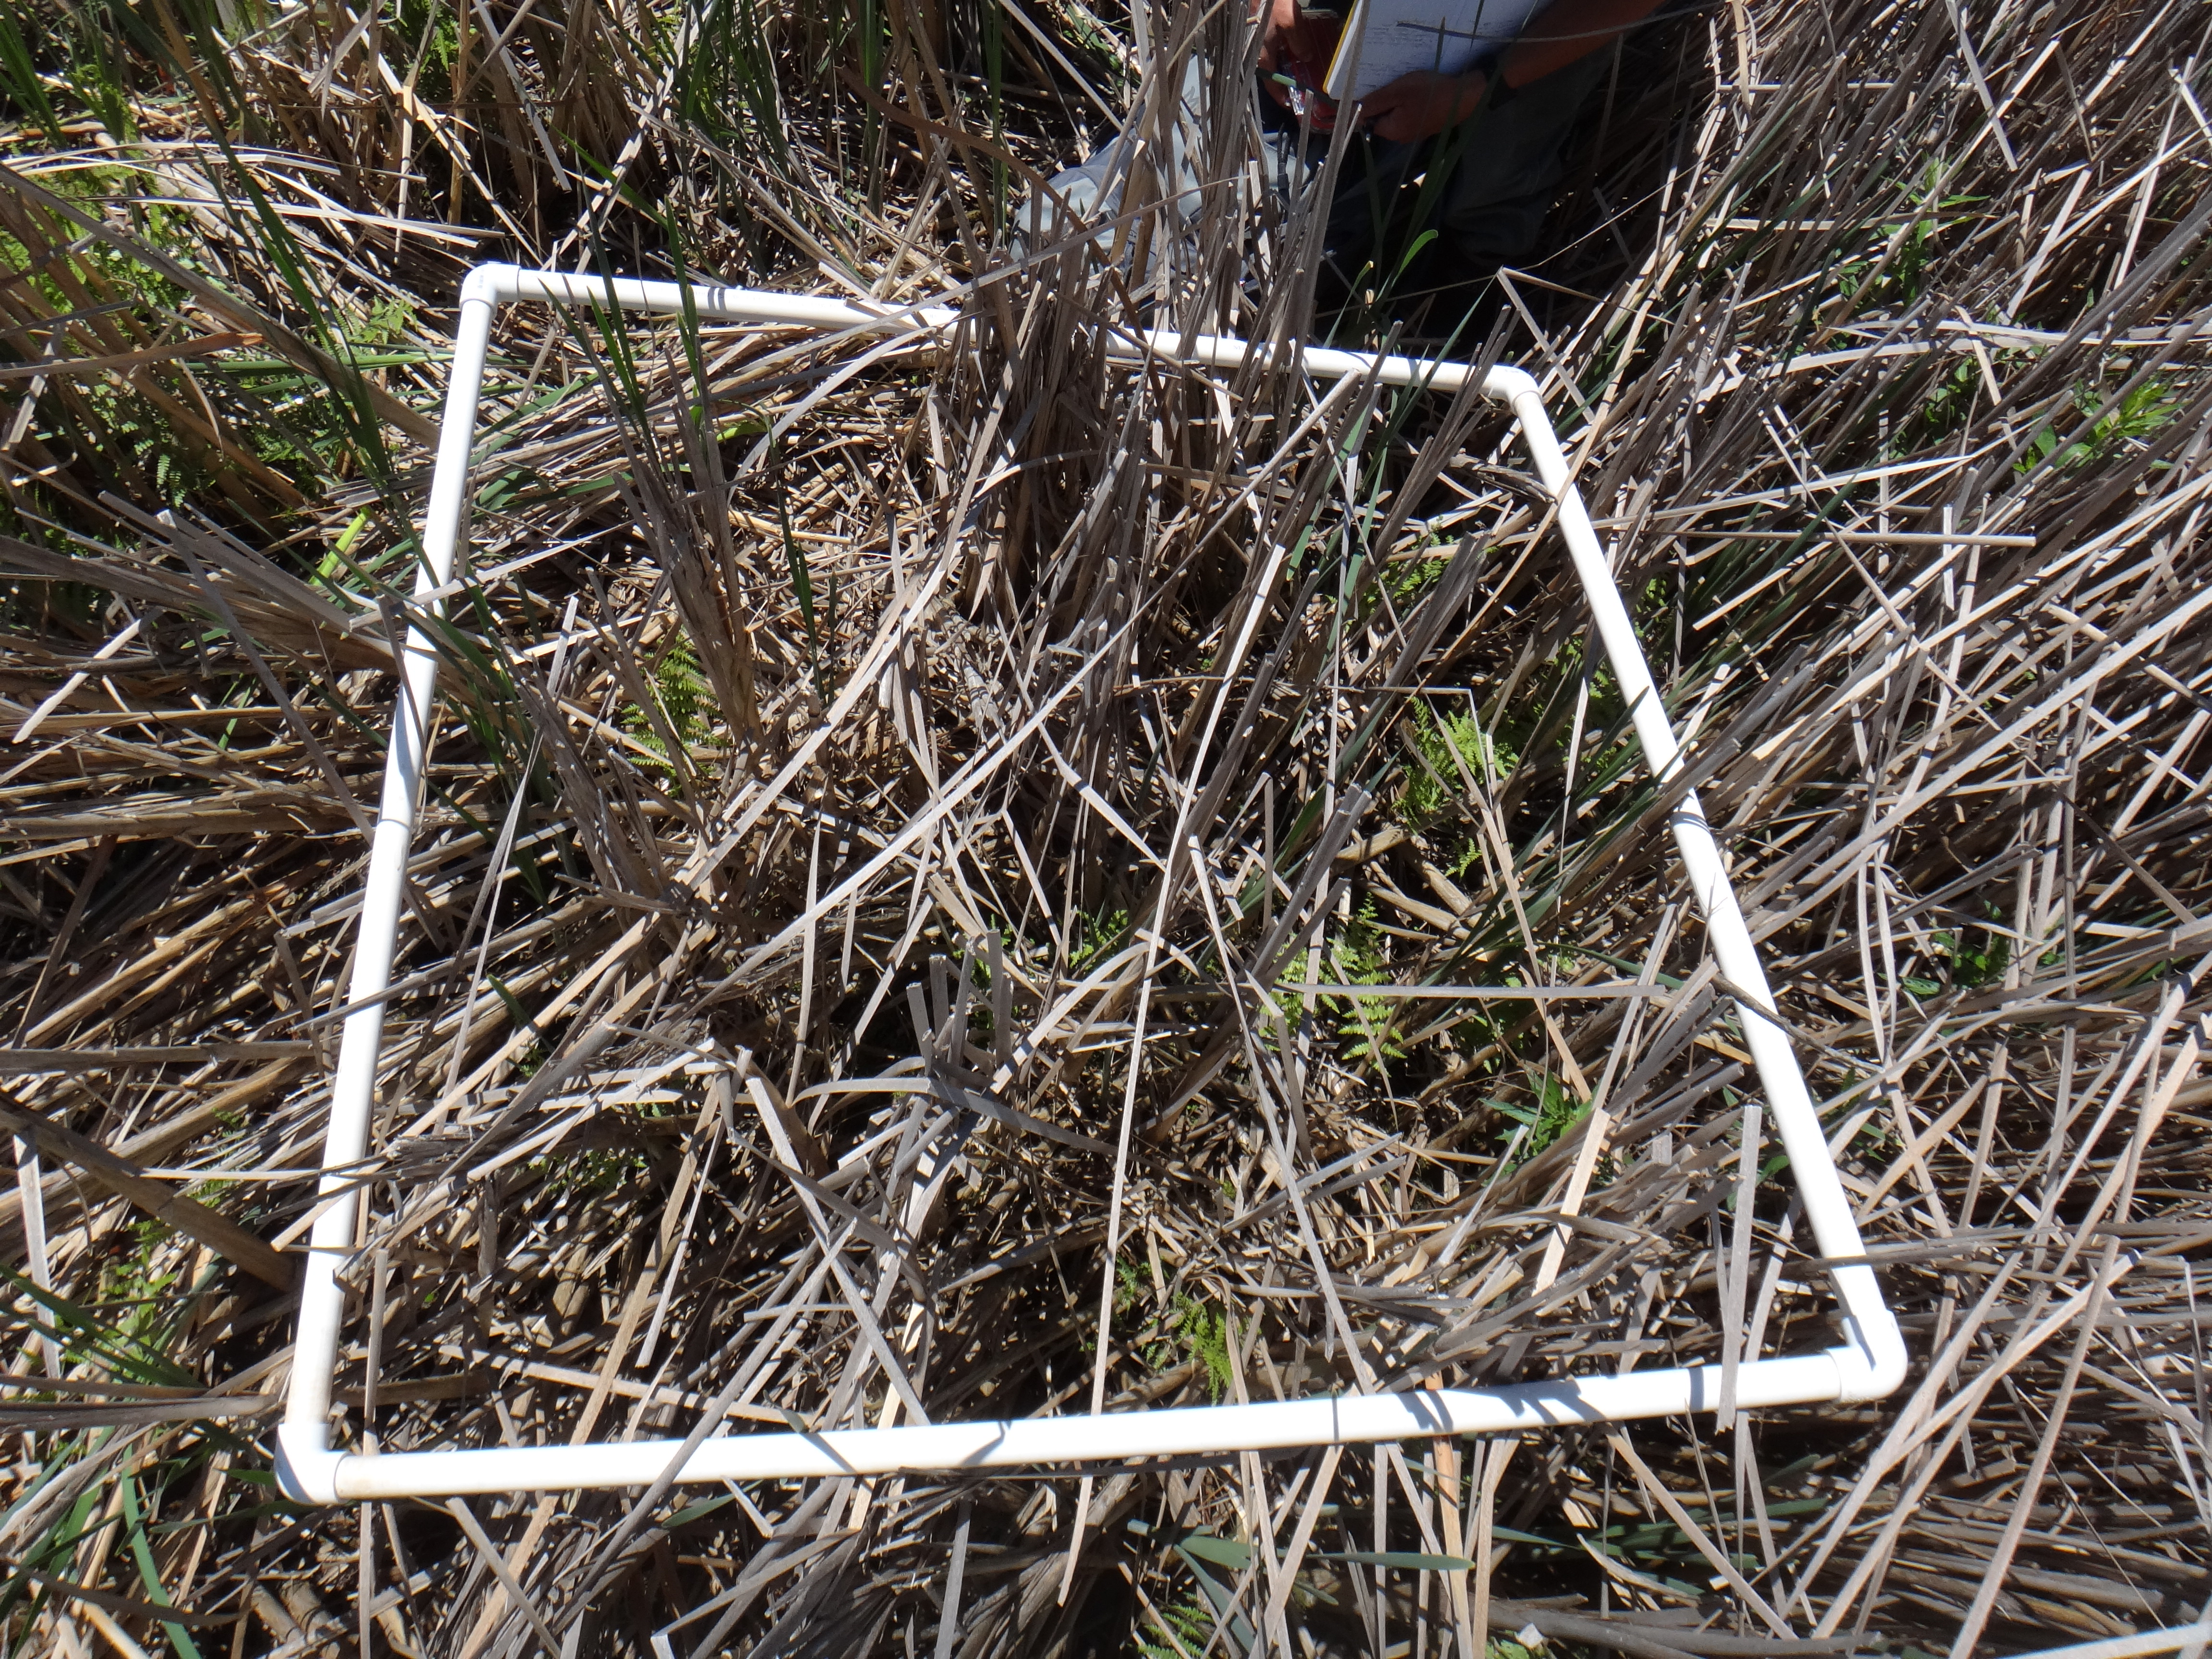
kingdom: Plantae
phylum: Tracheophyta
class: Polypodiopsida
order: Polypodiales
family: Thelypteridaceae
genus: Thelypteris
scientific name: Thelypteris palustris
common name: Marsh fern
